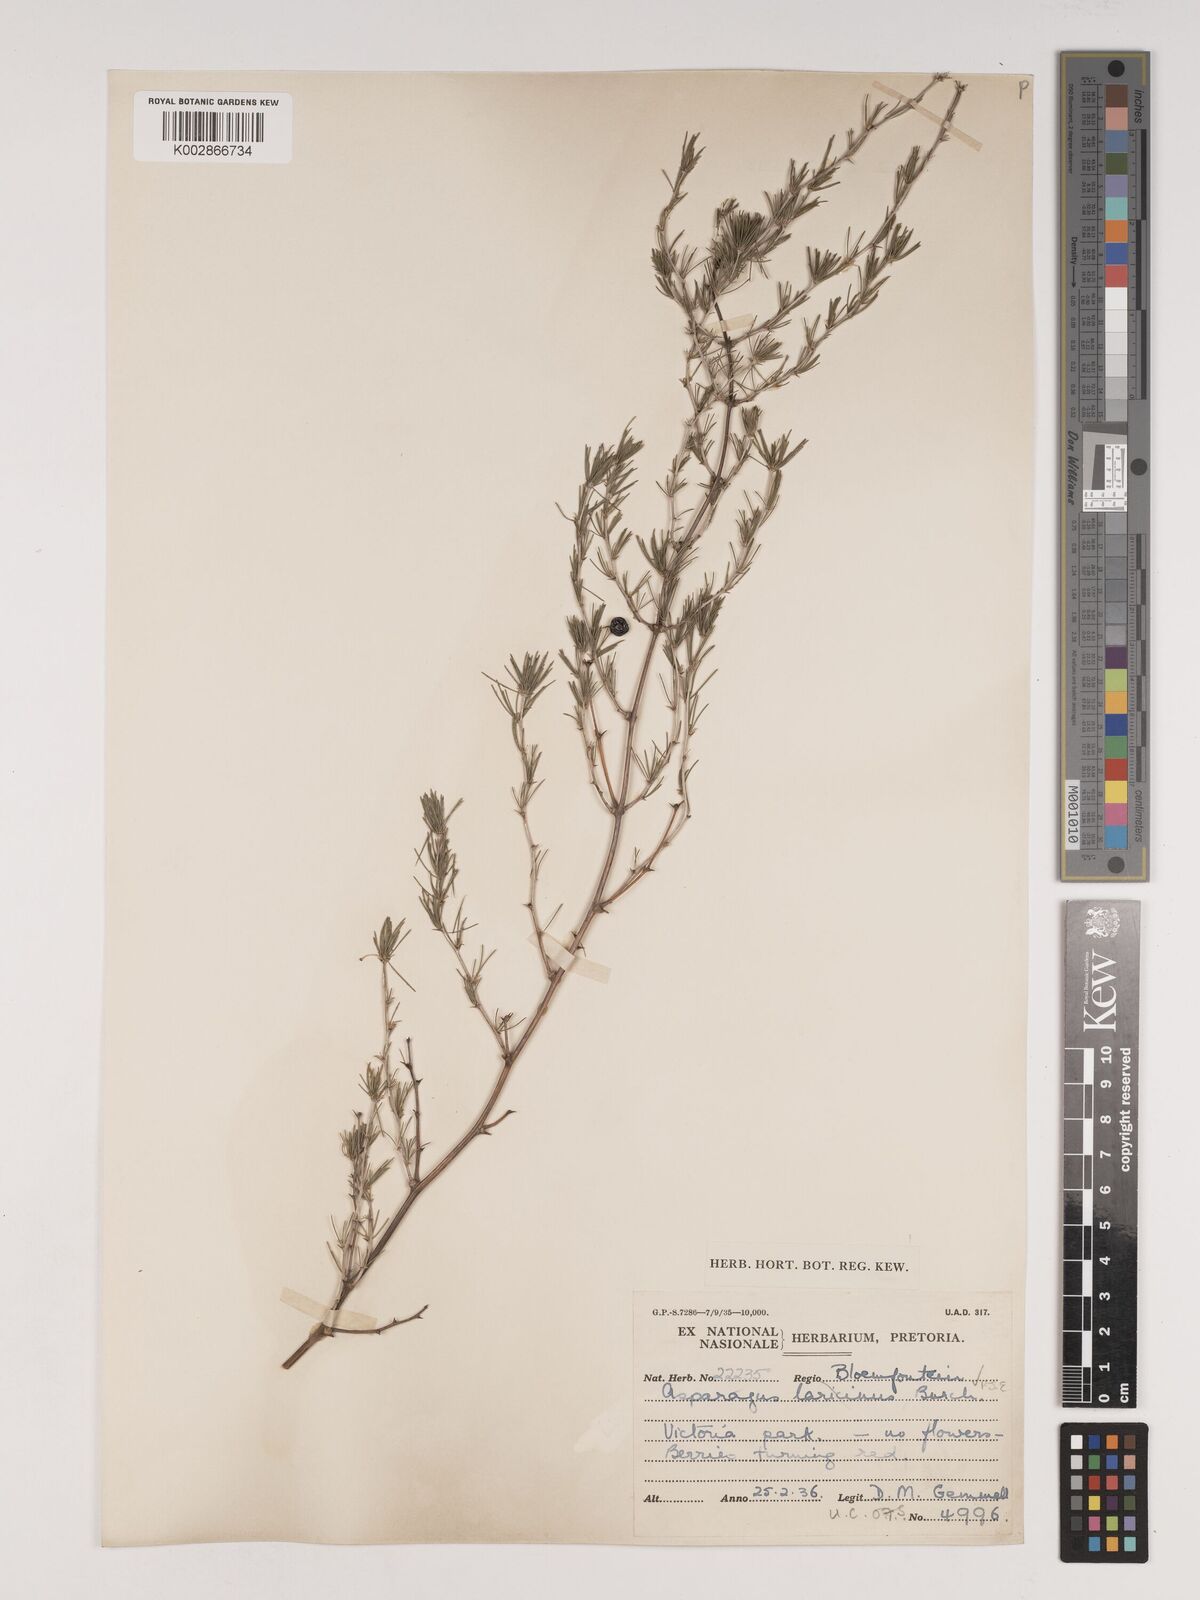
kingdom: Plantae
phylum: Tracheophyta
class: Liliopsida
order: Asparagales
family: Asparagaceae
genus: Asparagus
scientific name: Asparagus laricinus
